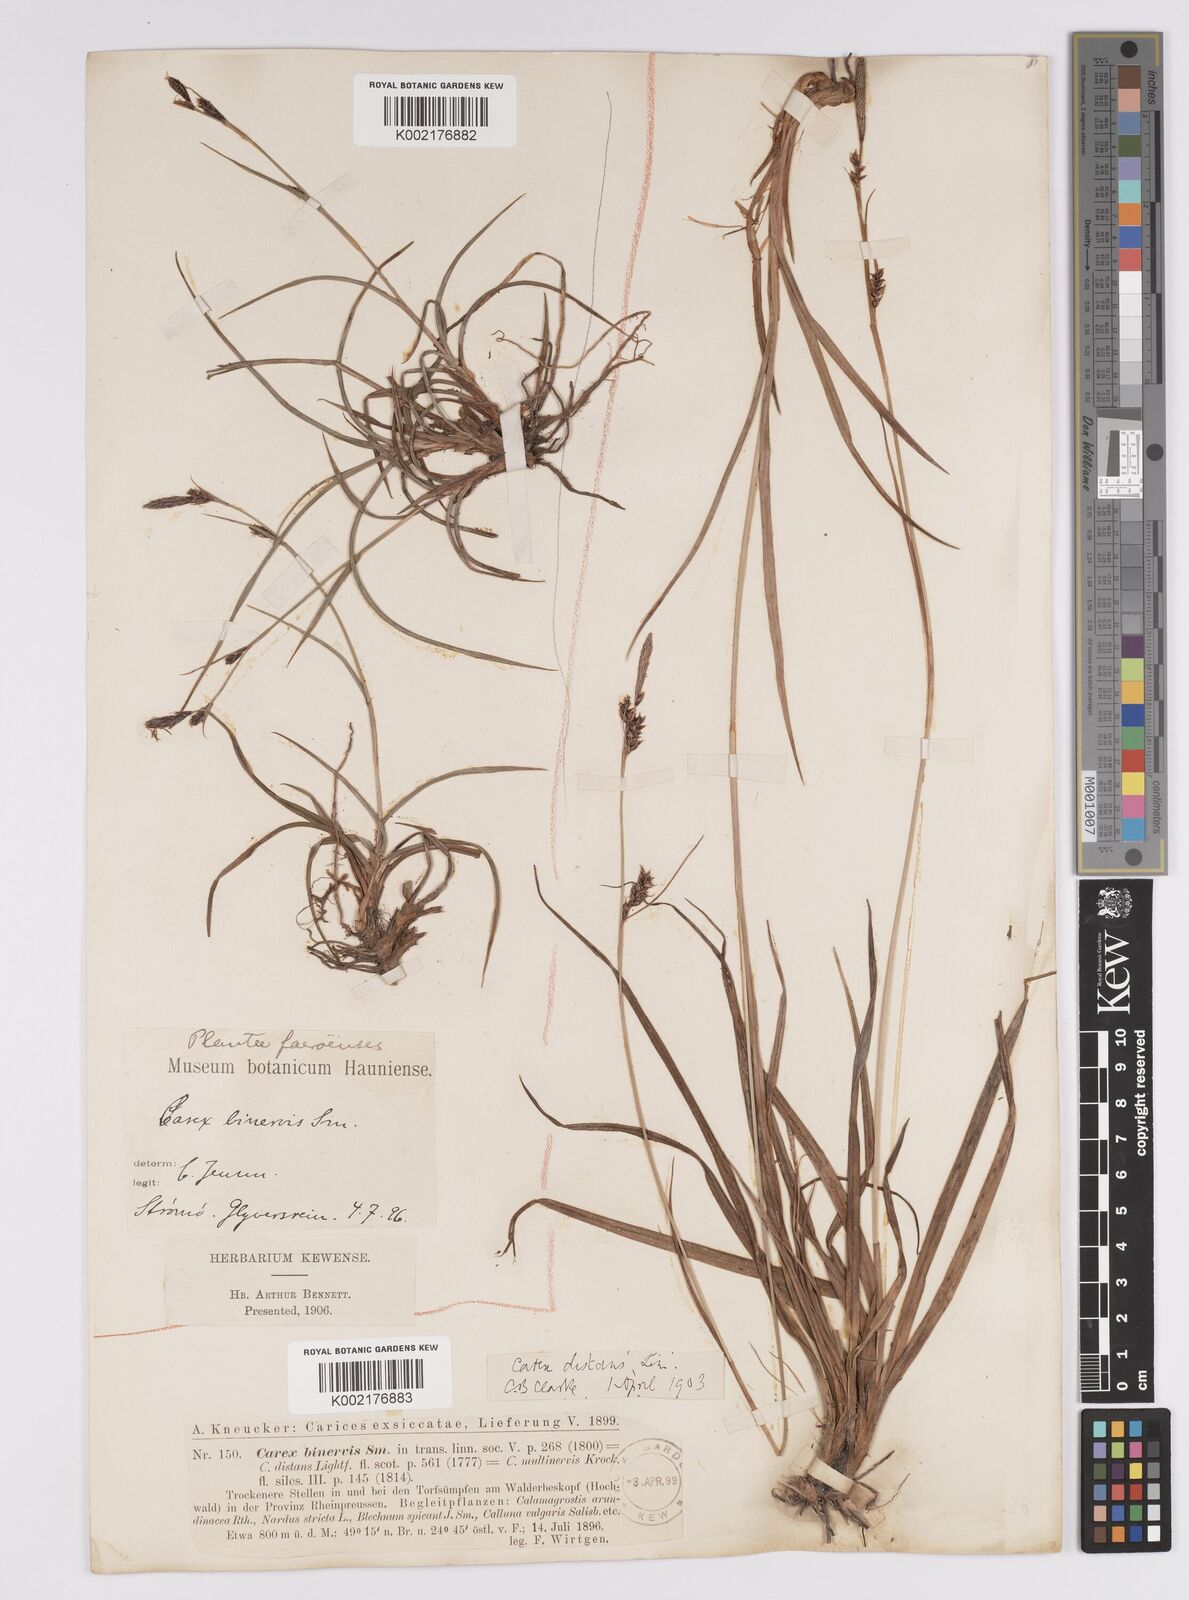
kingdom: Plantae
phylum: Tracheophyta
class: Liliopsida
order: Poales
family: Cyperaceae
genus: Carex
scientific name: Carex binervis
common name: Green-ribbed sedge
